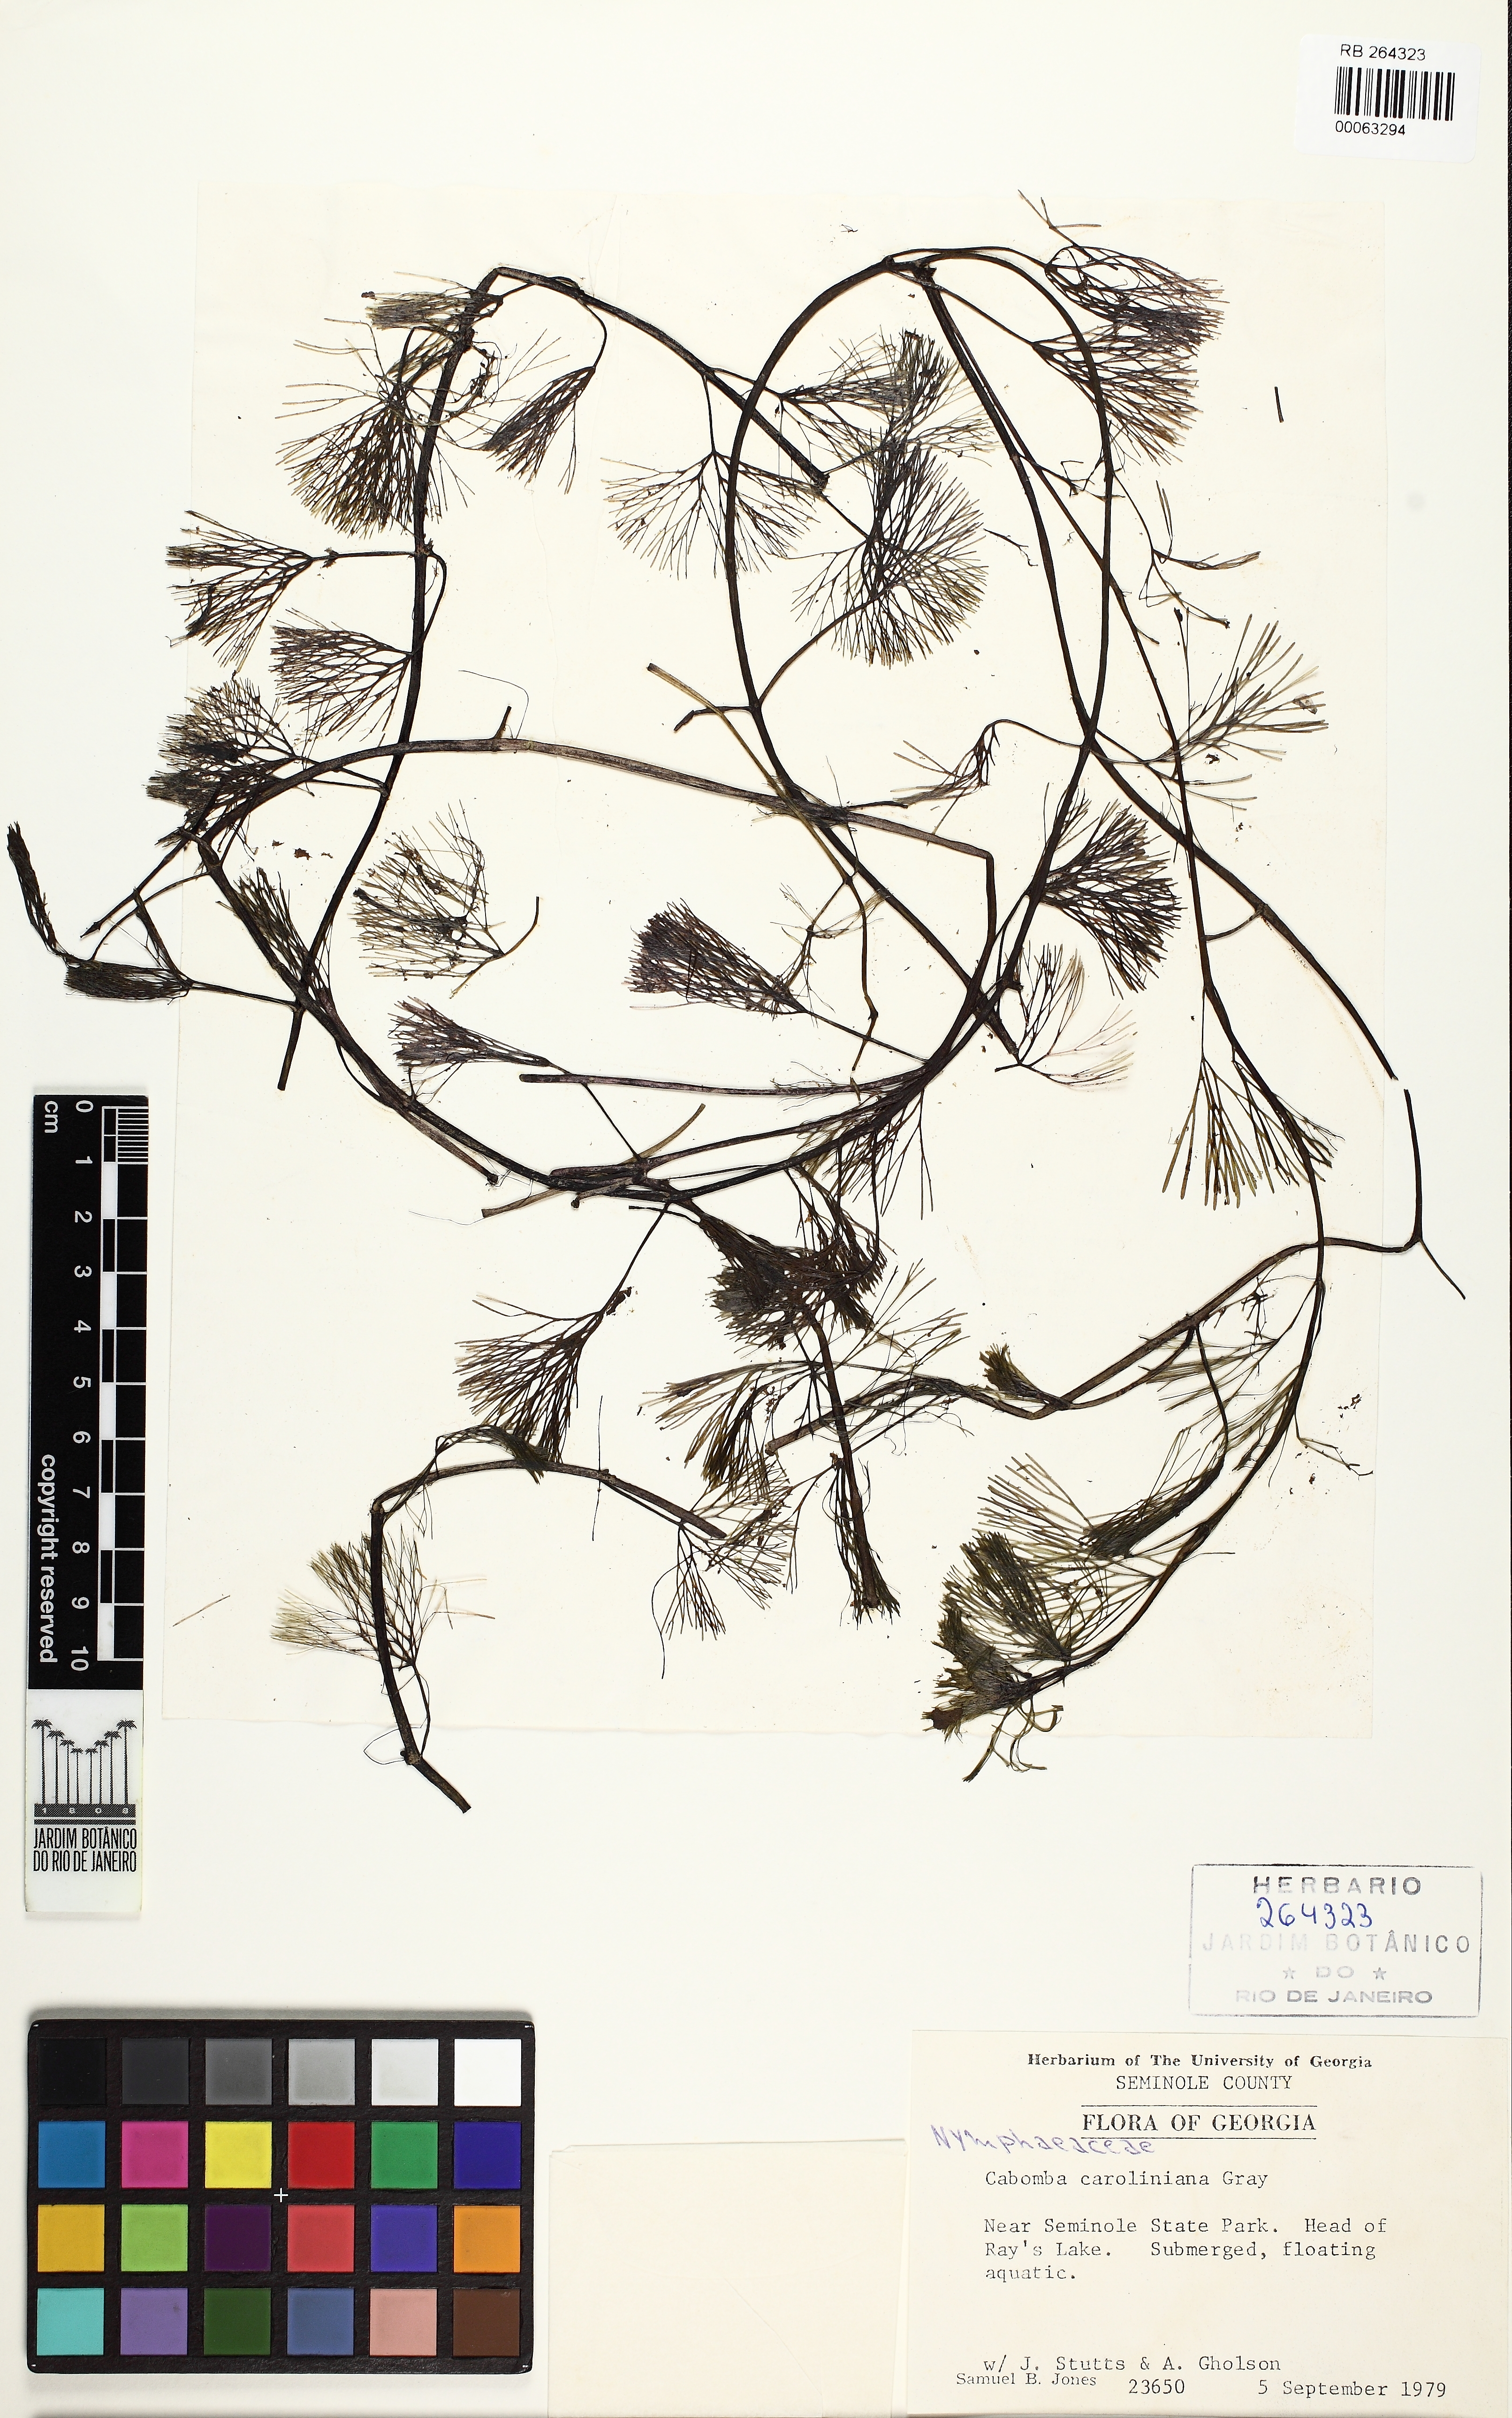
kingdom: Plantae
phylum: Tracheophyta
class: Magnoliopsida
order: Nymphaeales
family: Cabombaceae
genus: Cabomba
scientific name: Cabomba caroliniana
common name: Fanwort
